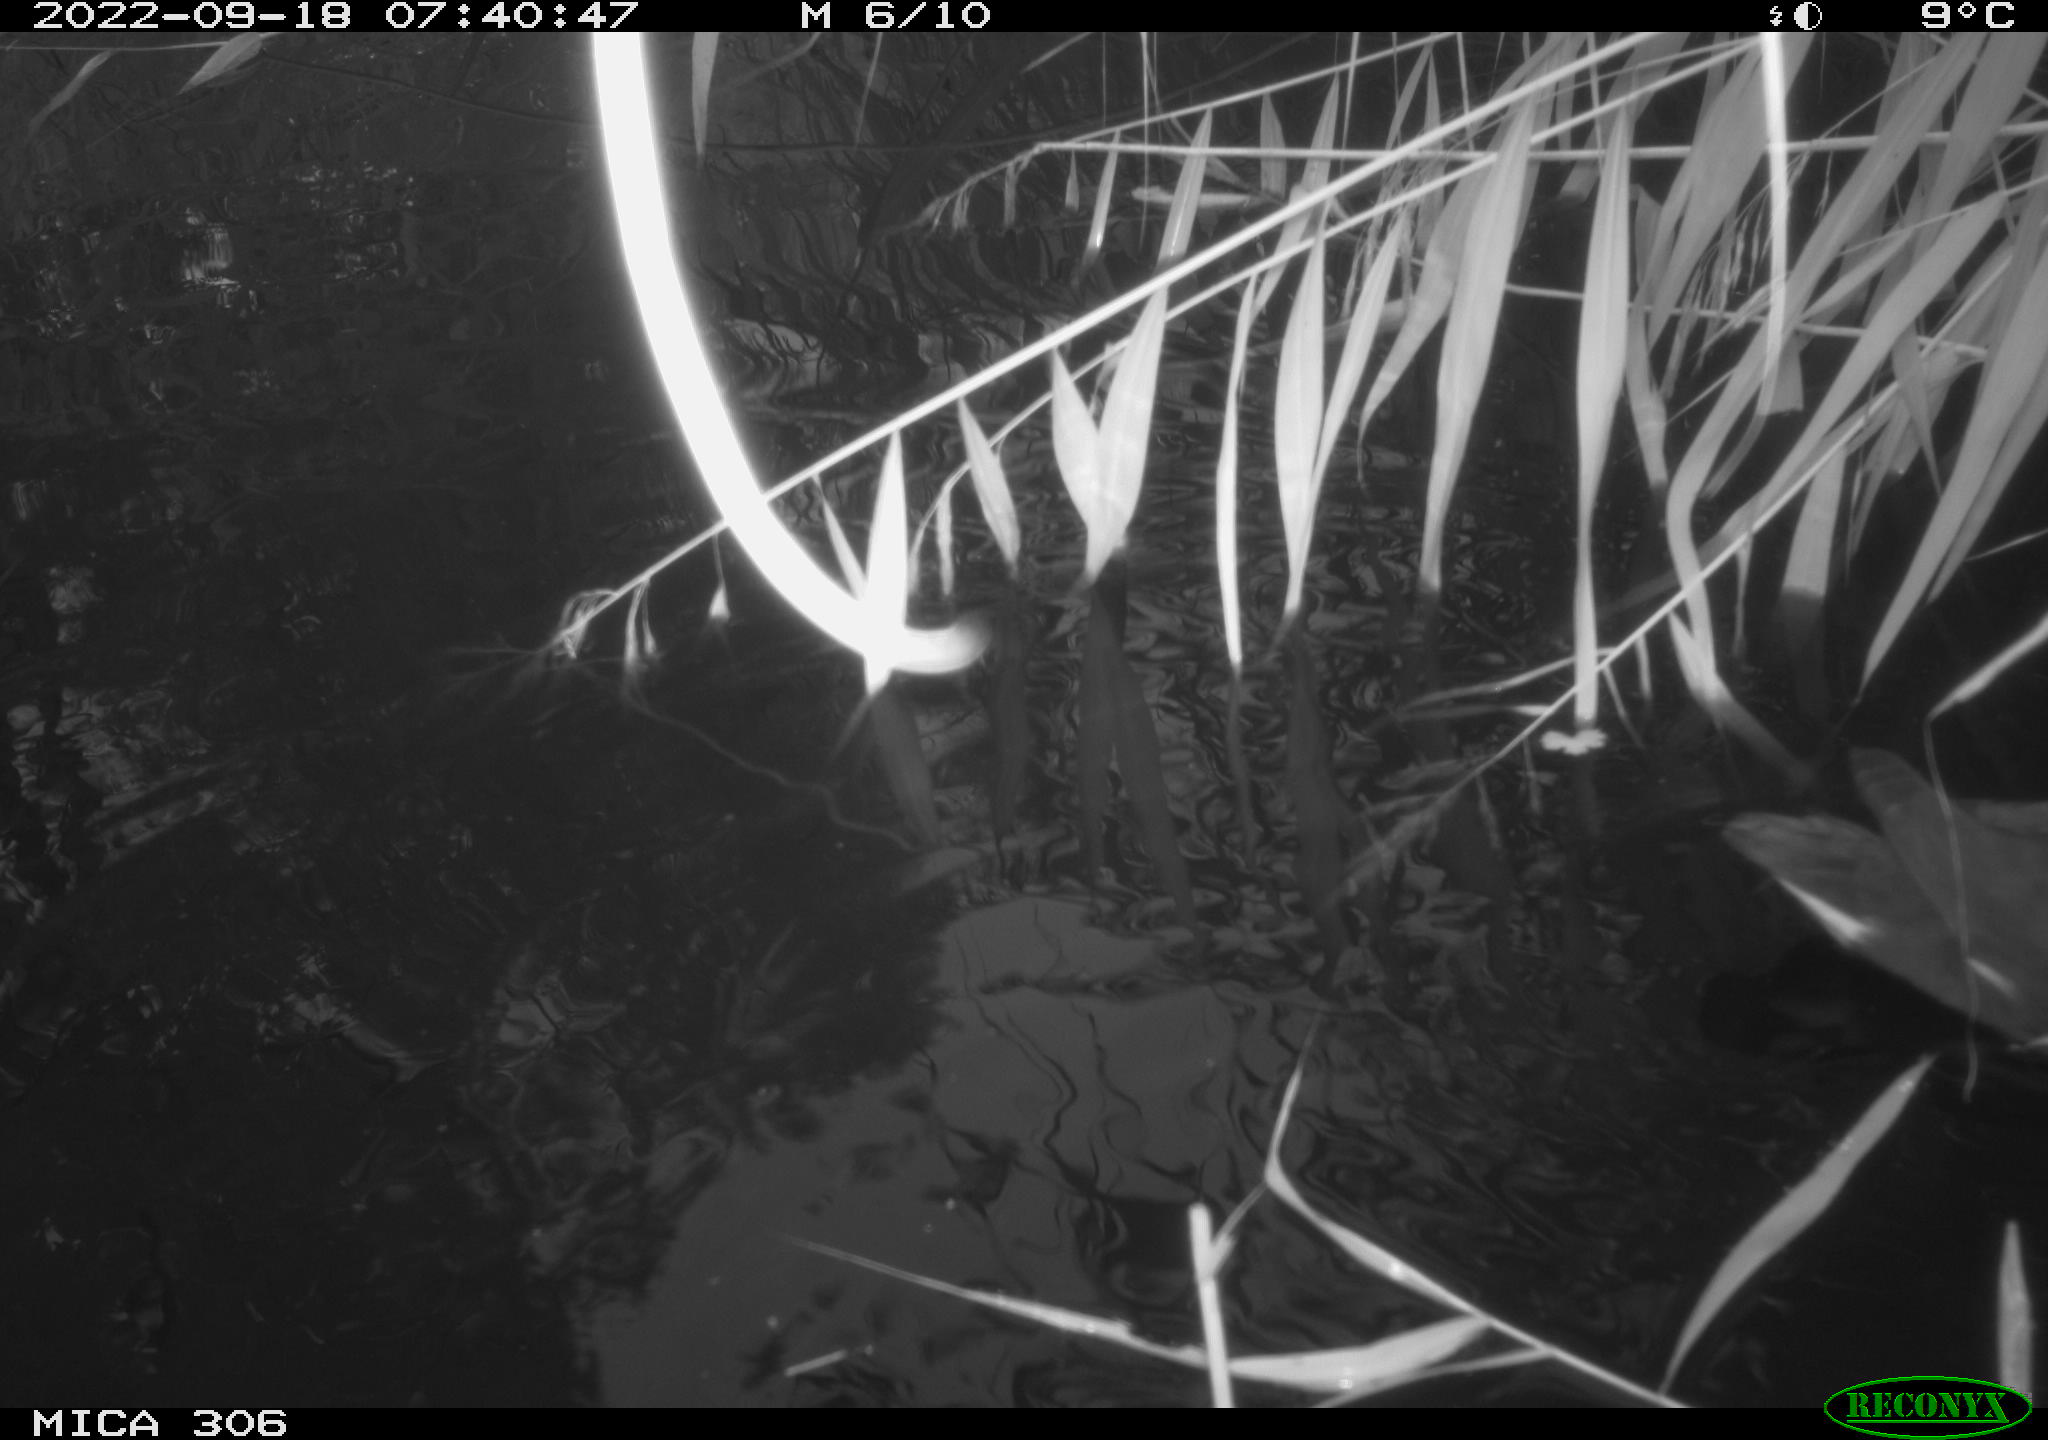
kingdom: Animalia
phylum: Chordata
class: Aves
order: Gruiformes
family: Rallidae
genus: Gallinula
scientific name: Gallinula chloropus
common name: Common moorhen
